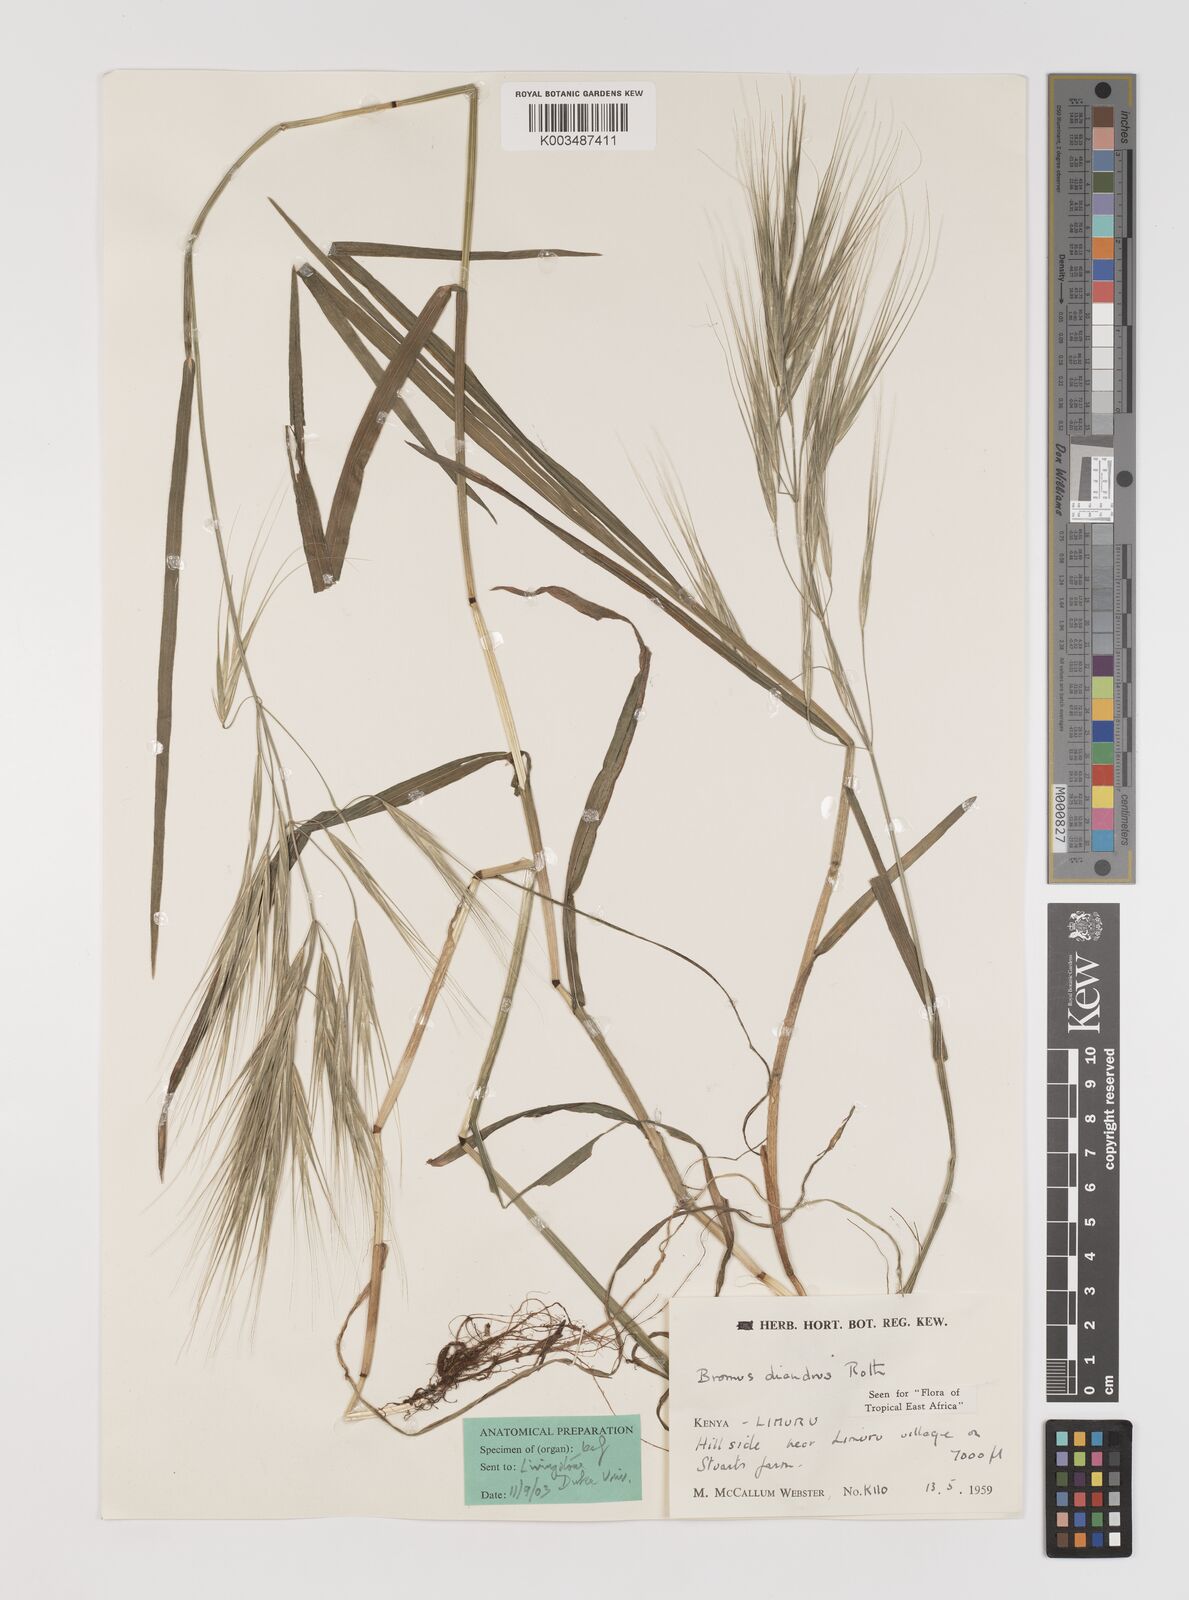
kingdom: Plantae
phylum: Tracheophyta
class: Liliopsida
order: Poales
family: Poaceae
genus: Bromus
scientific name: Bromus diandrus
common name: Ripgut brome
